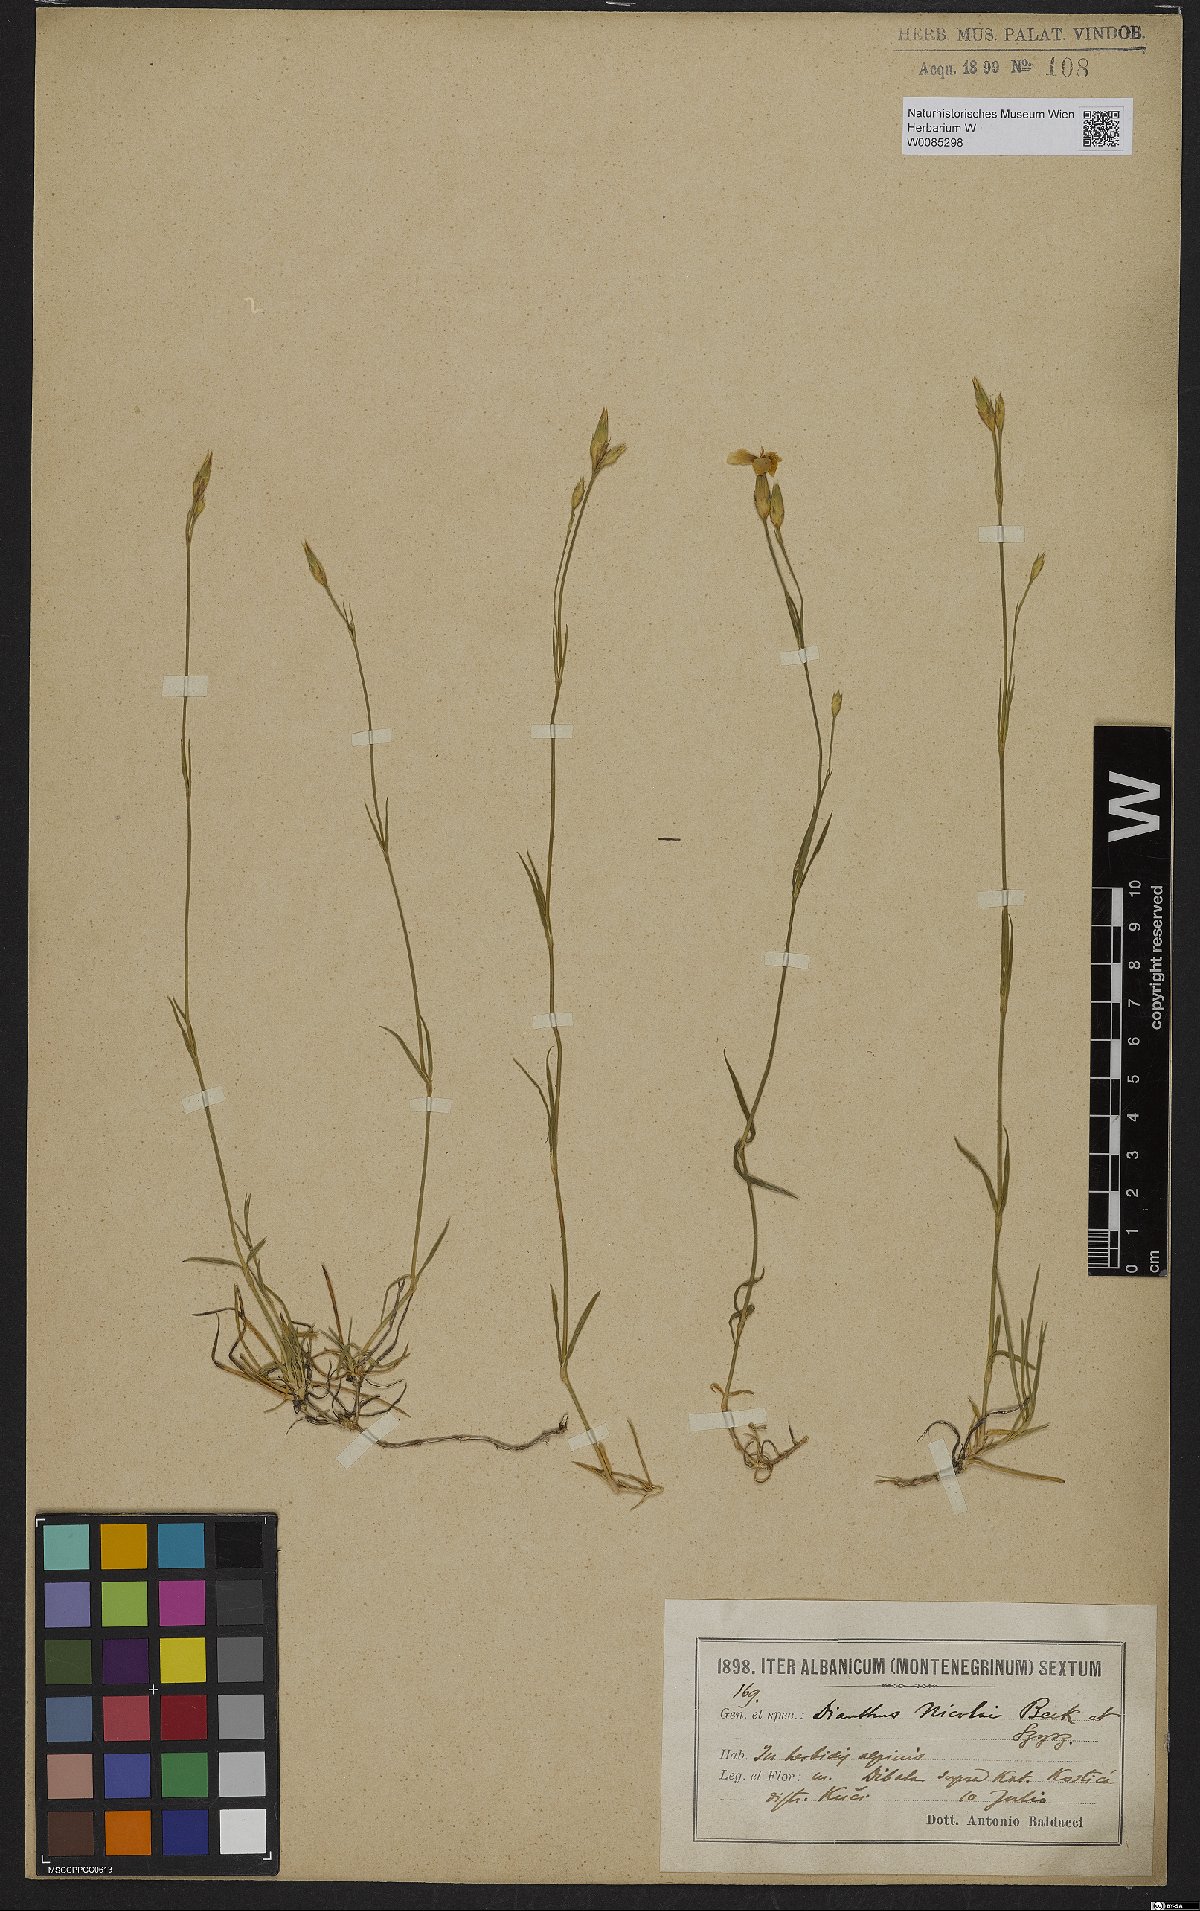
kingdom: Plantae
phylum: Tracheophyta
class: Magnoliopsida
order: Caryophyllales
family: Caryophyllaceae
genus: Dianthus
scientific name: Dianthus petraeus
